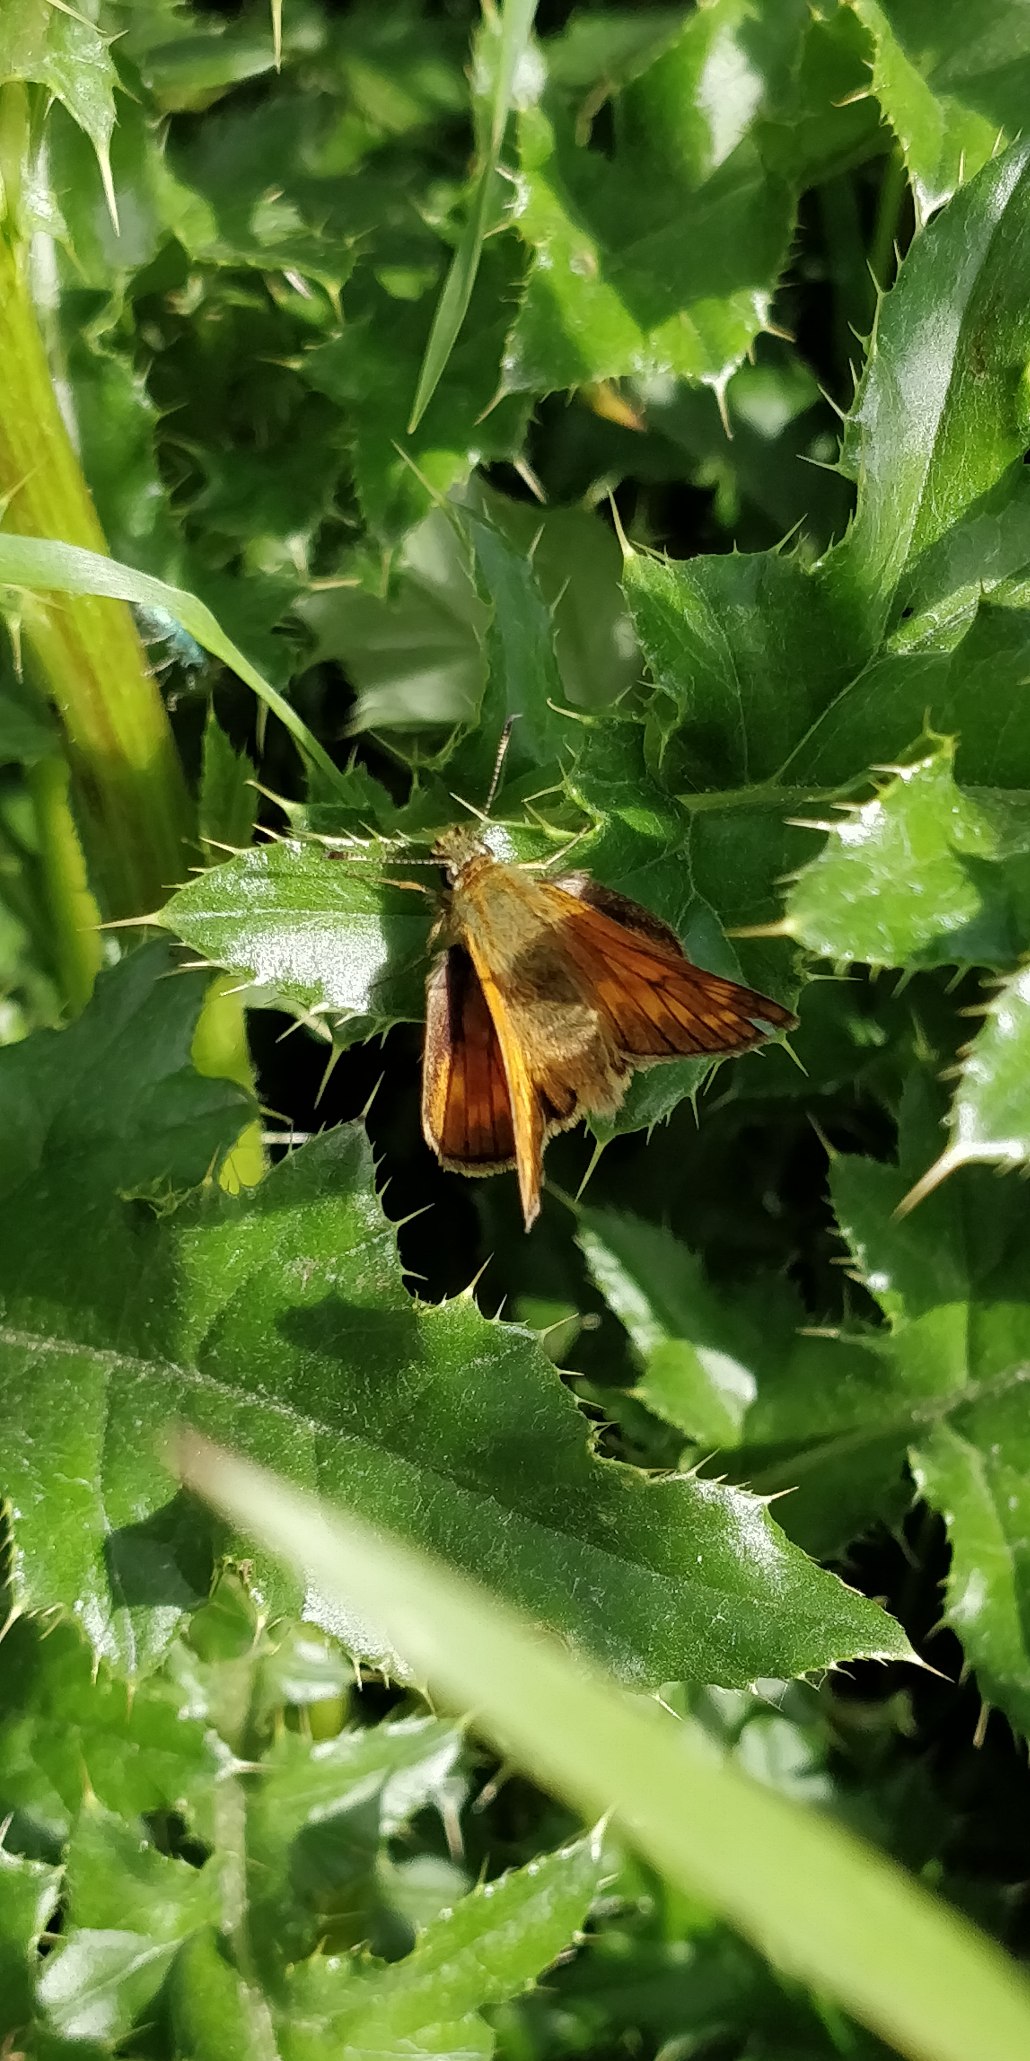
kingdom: Animalia
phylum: Arthropoda
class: Insecta
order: Lepidoptera
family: Hesperiidae
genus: Ochlodes
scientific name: Ochlodes venata
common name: Stor bredpande
